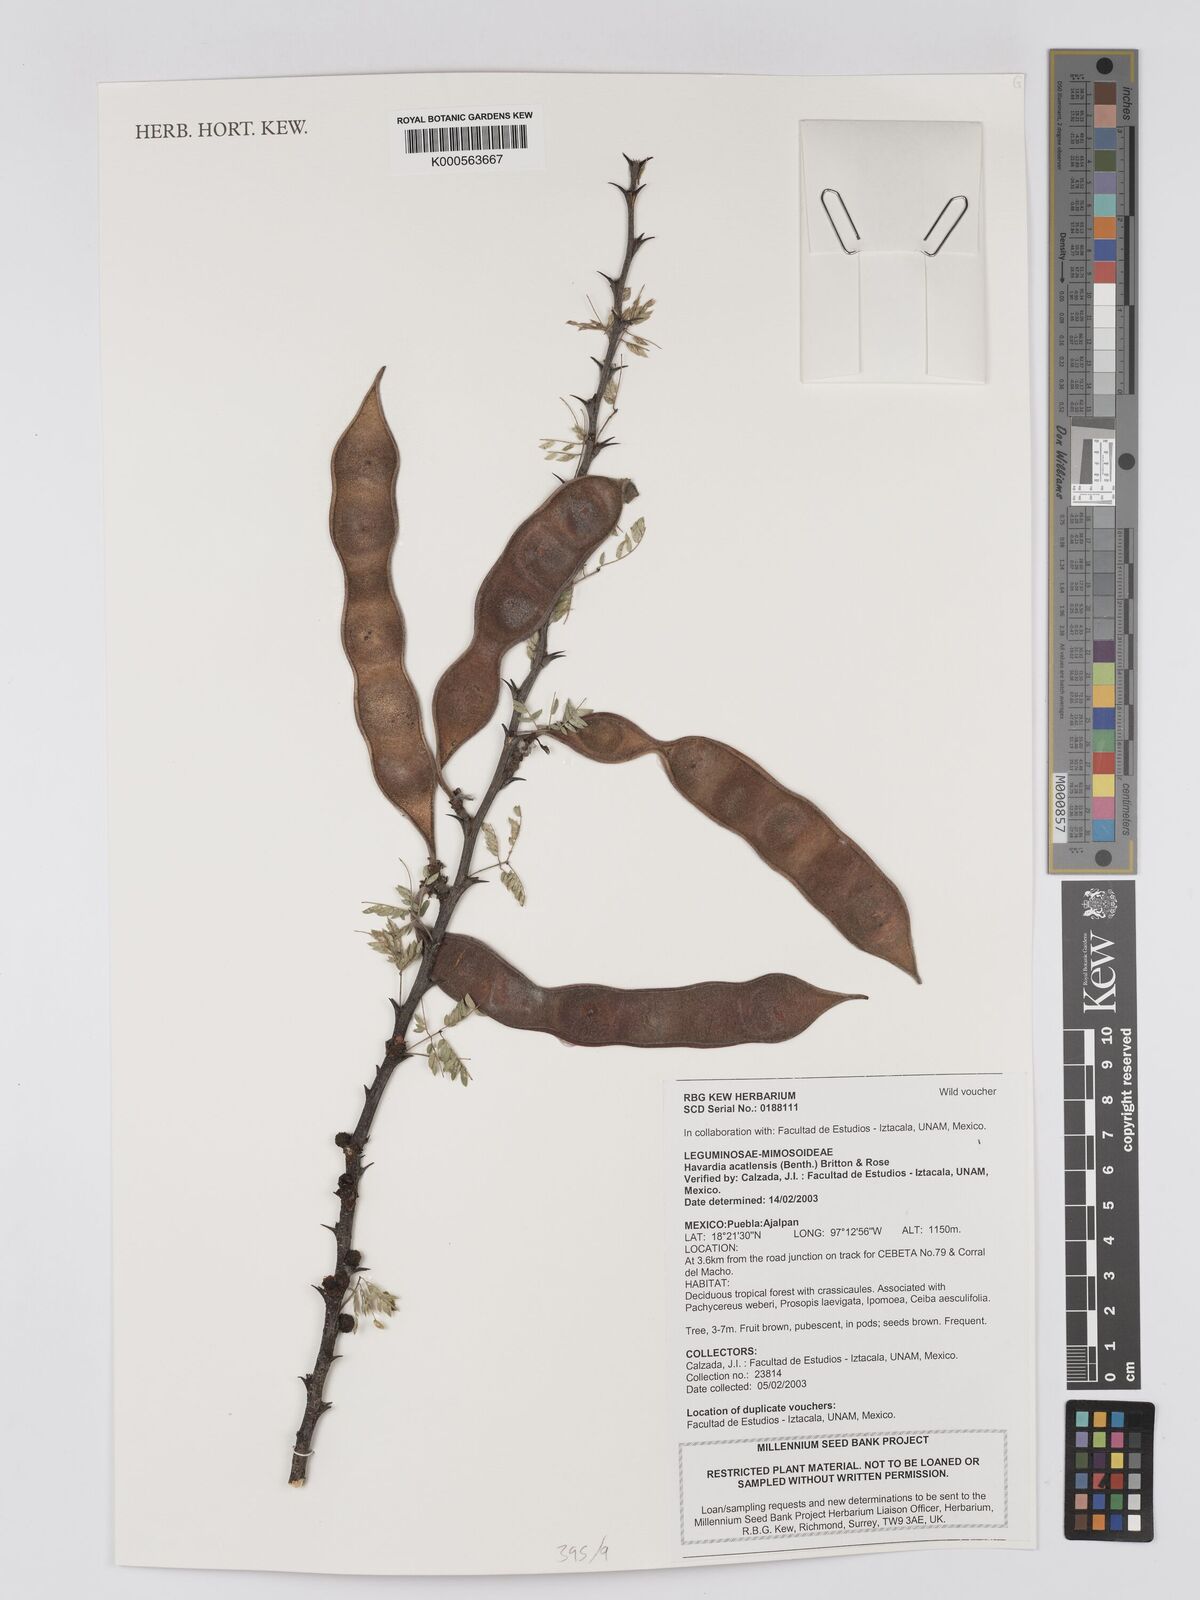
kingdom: Plantae
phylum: Tracheophyta
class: Magnoliopsida
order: Fabales
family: Fabaceae
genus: Havardia
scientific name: Havardia acatlensis
